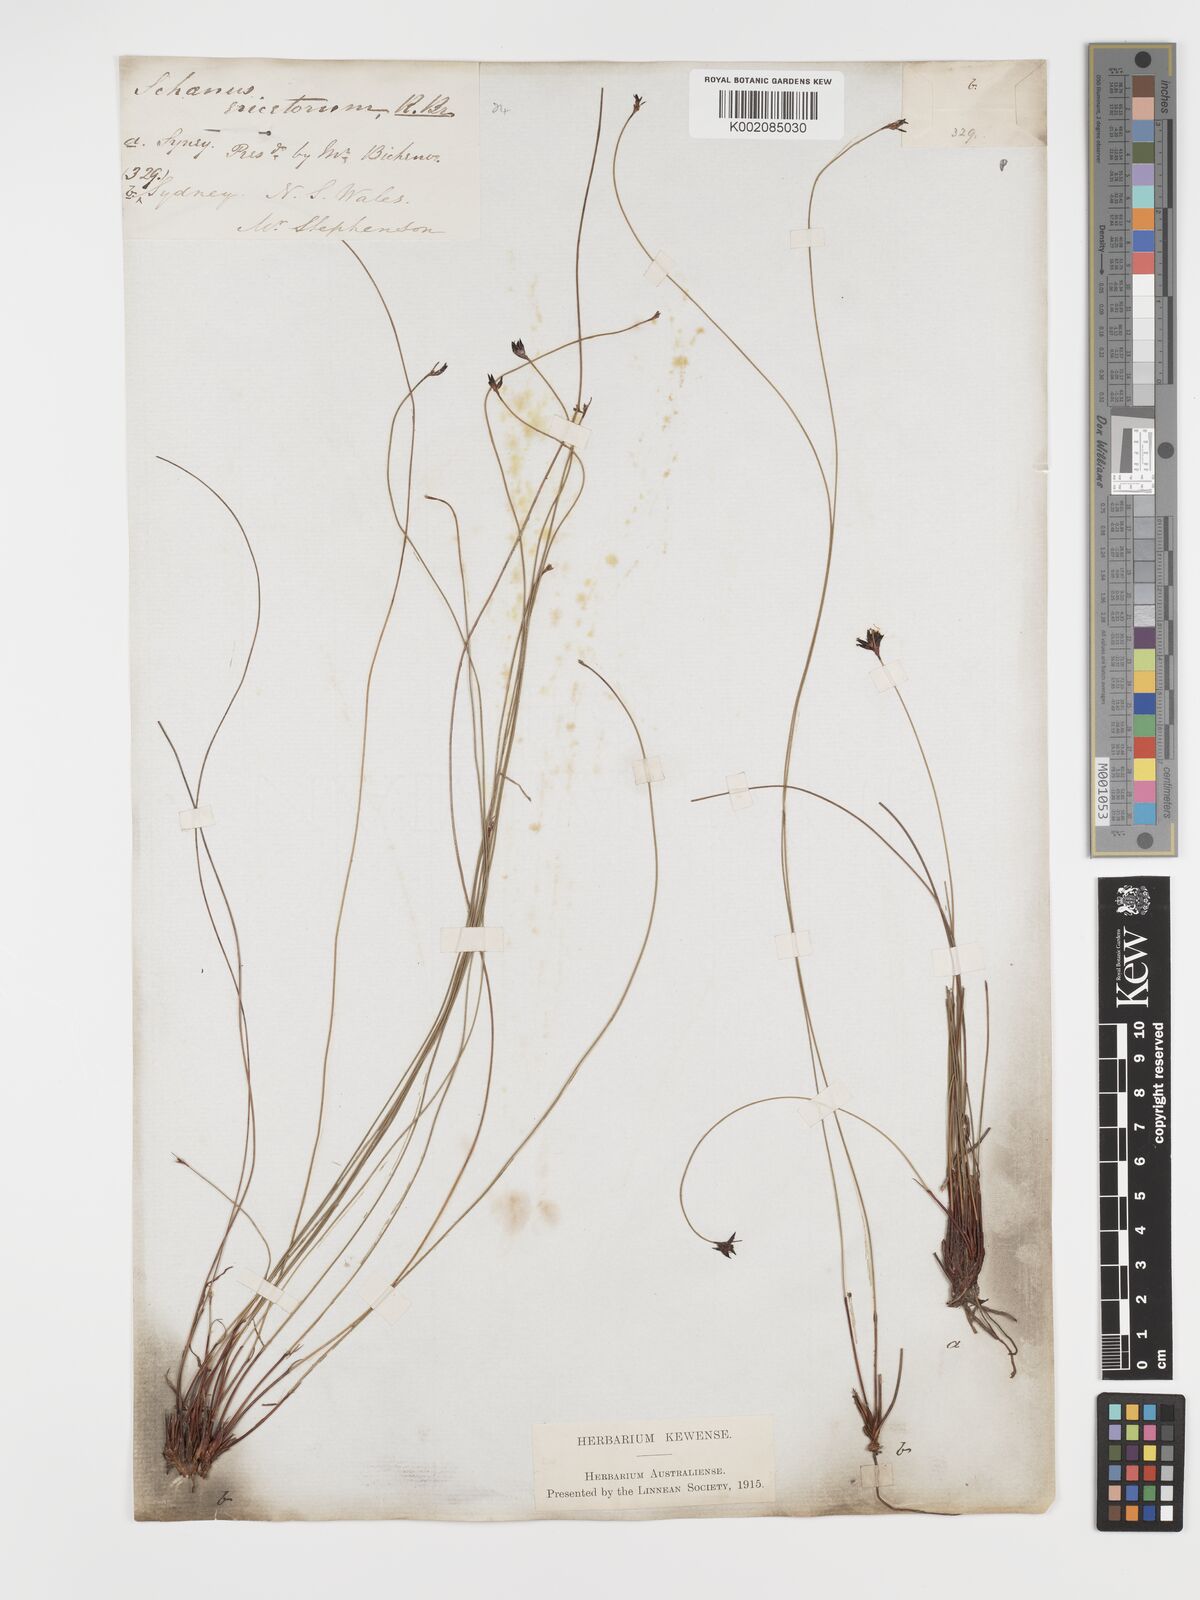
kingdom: Plantae
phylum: Tracheophyta
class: Liliopsida
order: Poales
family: Cyperaceae
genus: Schoenus
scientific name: Schoenus ericetorum
